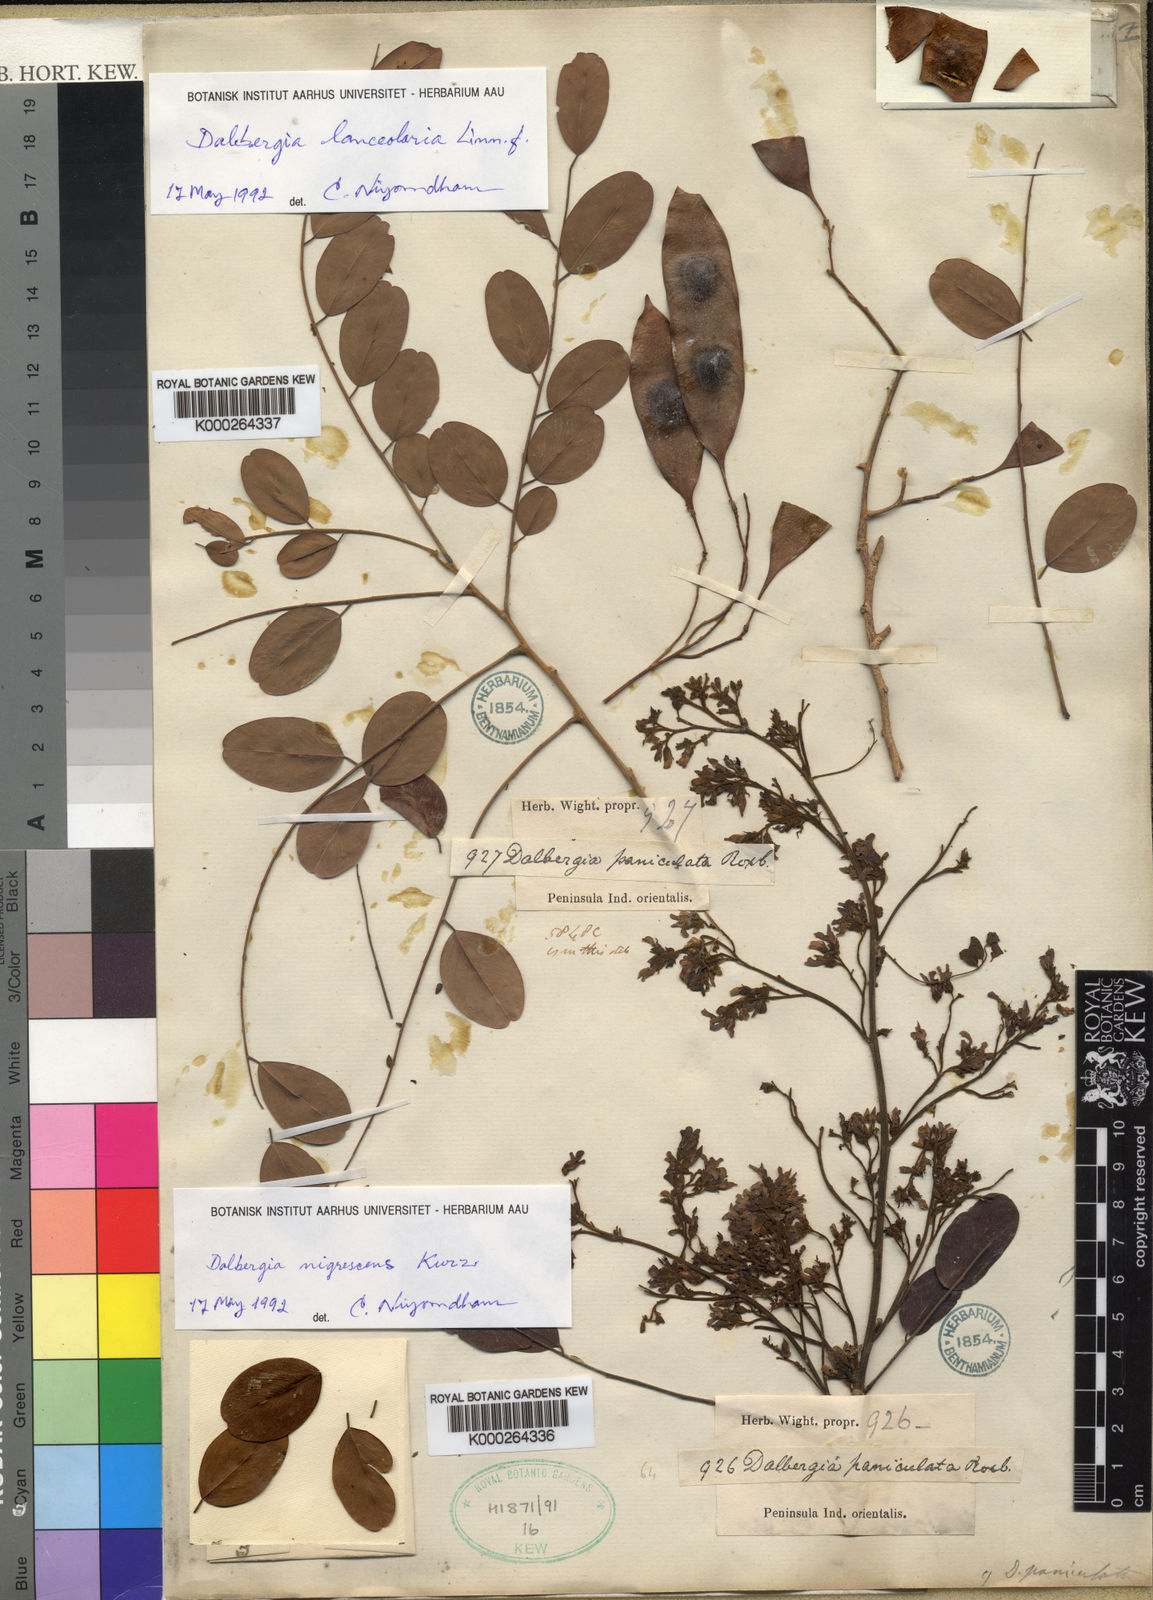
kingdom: Plantae
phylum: Tracheophyta
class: Magnoliopsida
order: Fabales
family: Fabaceae
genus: Dalbergia
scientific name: Dalbergia
